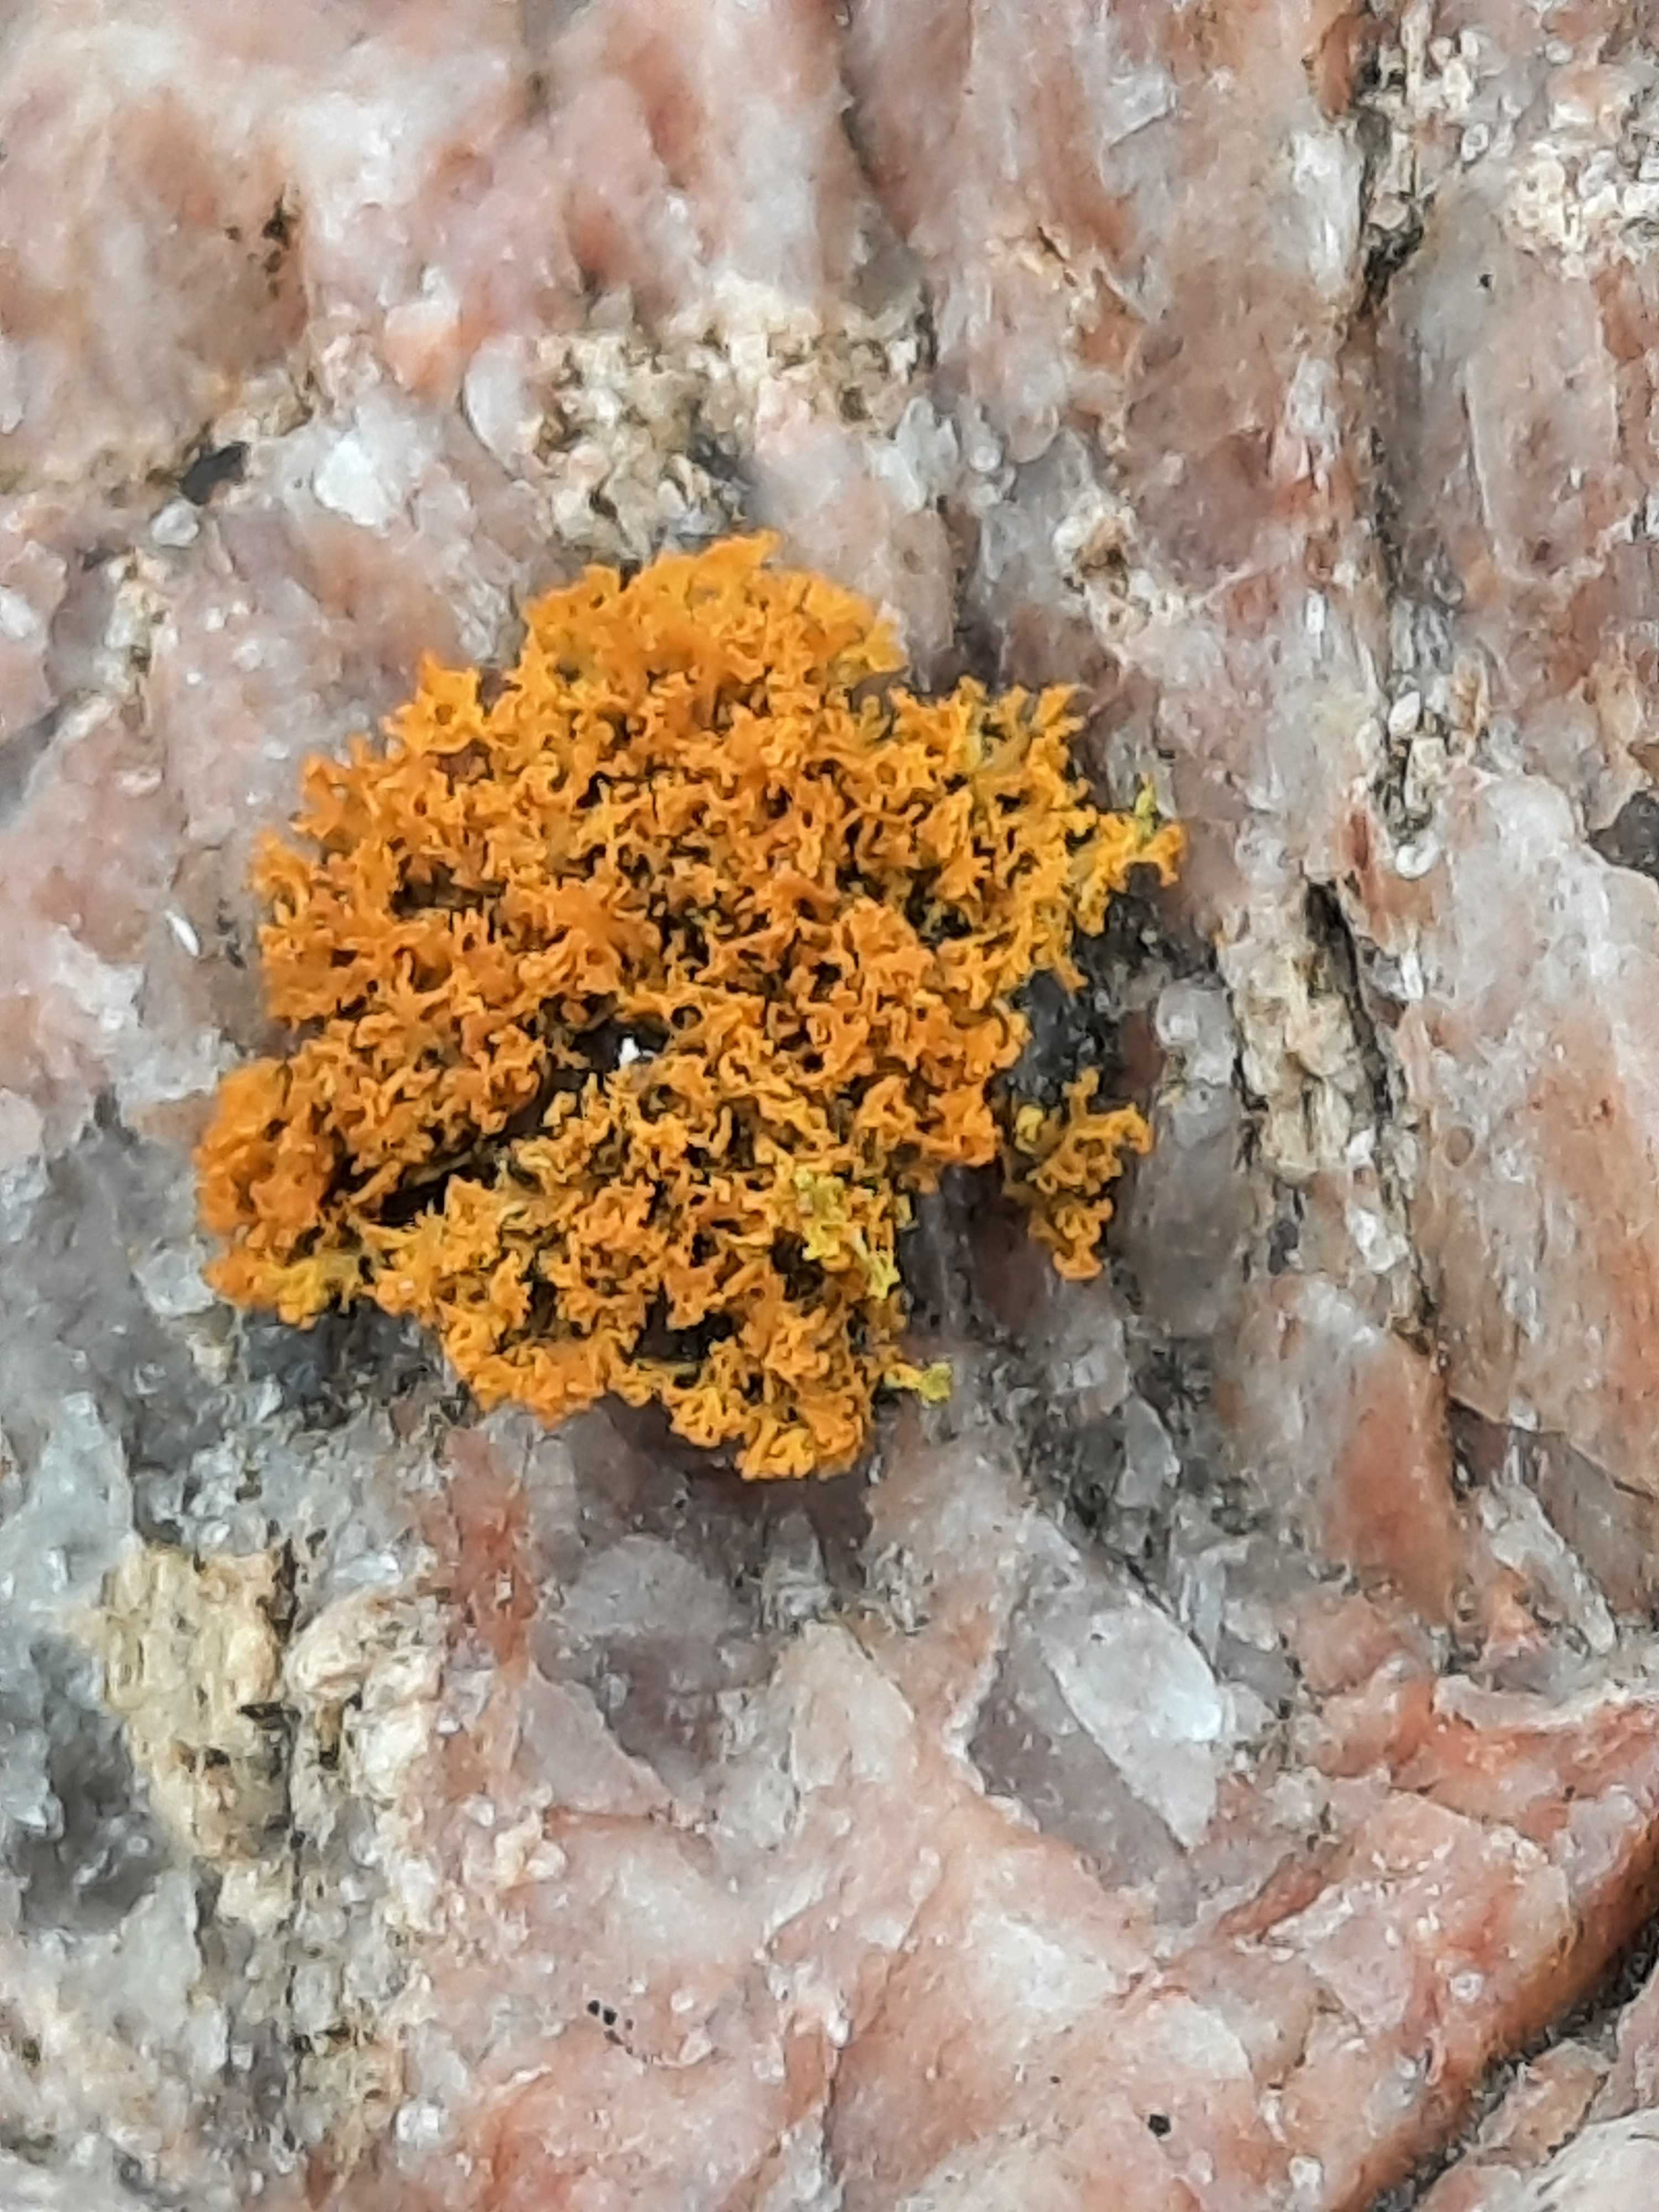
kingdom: Fungi
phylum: Ascomycota
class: Lecanoromycetes
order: Teloschistales
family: Teloschistaceae
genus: Polycauliona
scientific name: Polycauliona candelaria
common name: tue-orangelav
